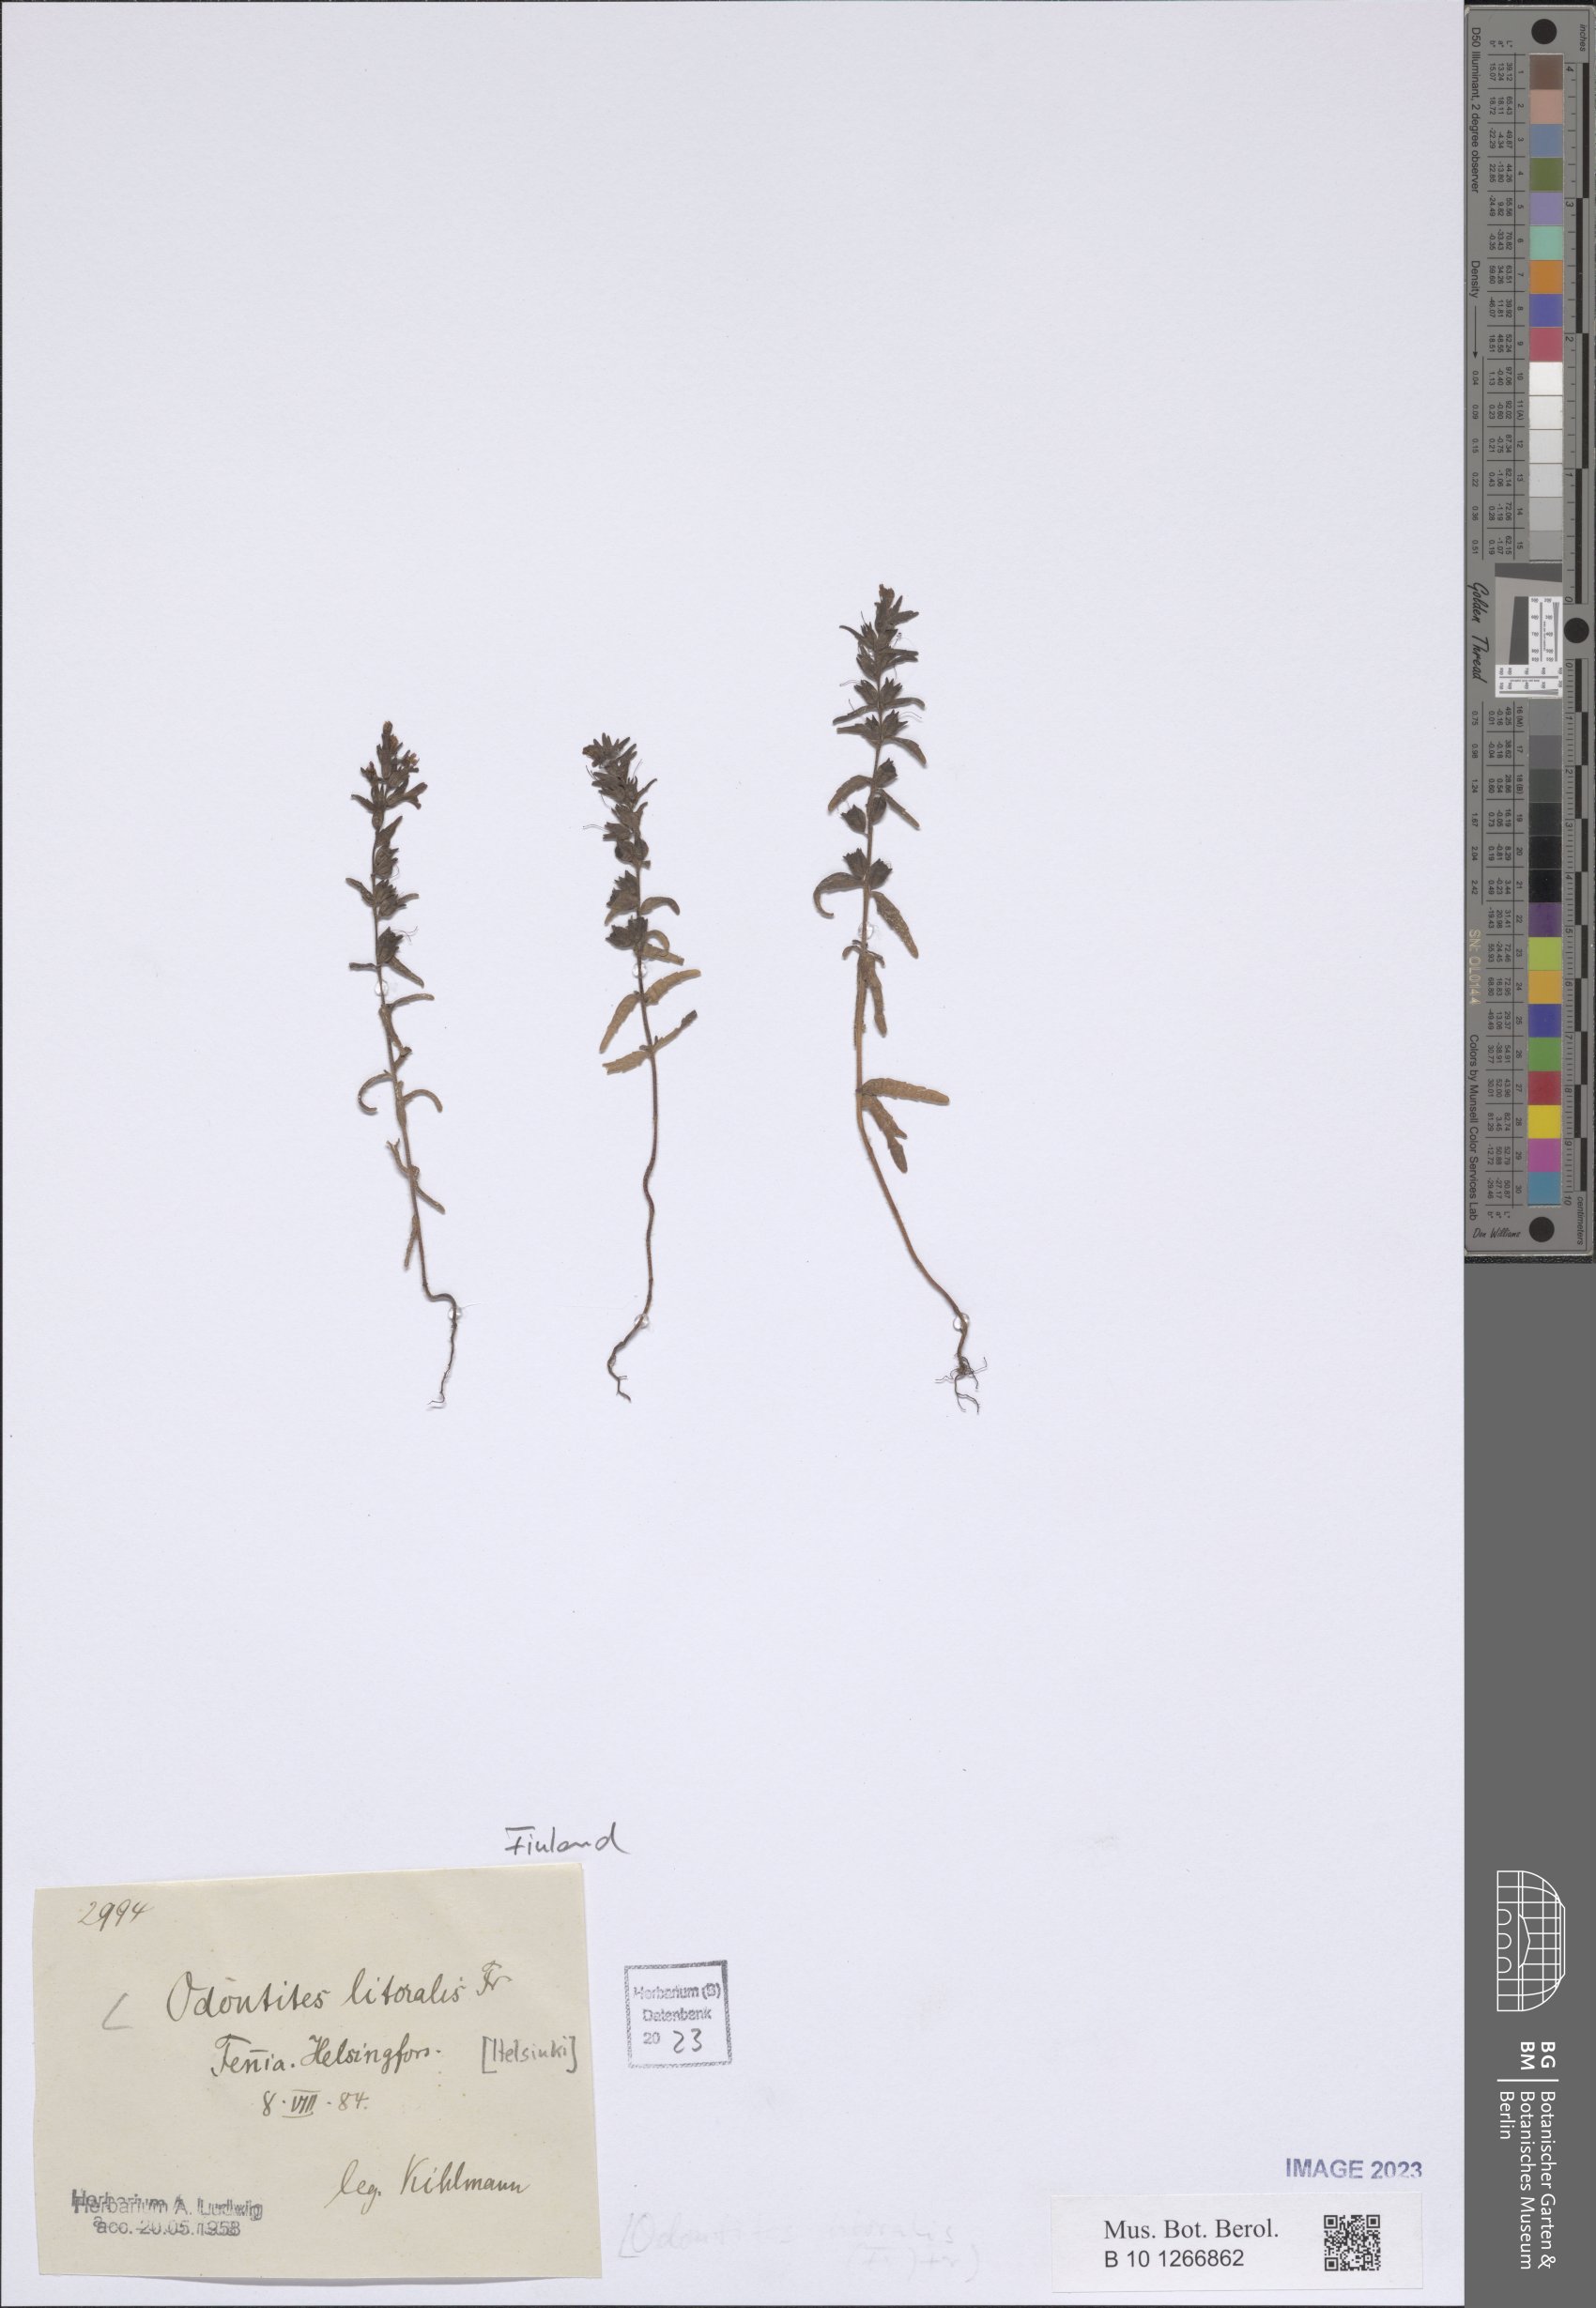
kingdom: Plantae
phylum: Tracheophyta
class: Magnoliopsida
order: Lamiales
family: Orobanchaceae
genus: Odontites
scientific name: Odontites litoralis
